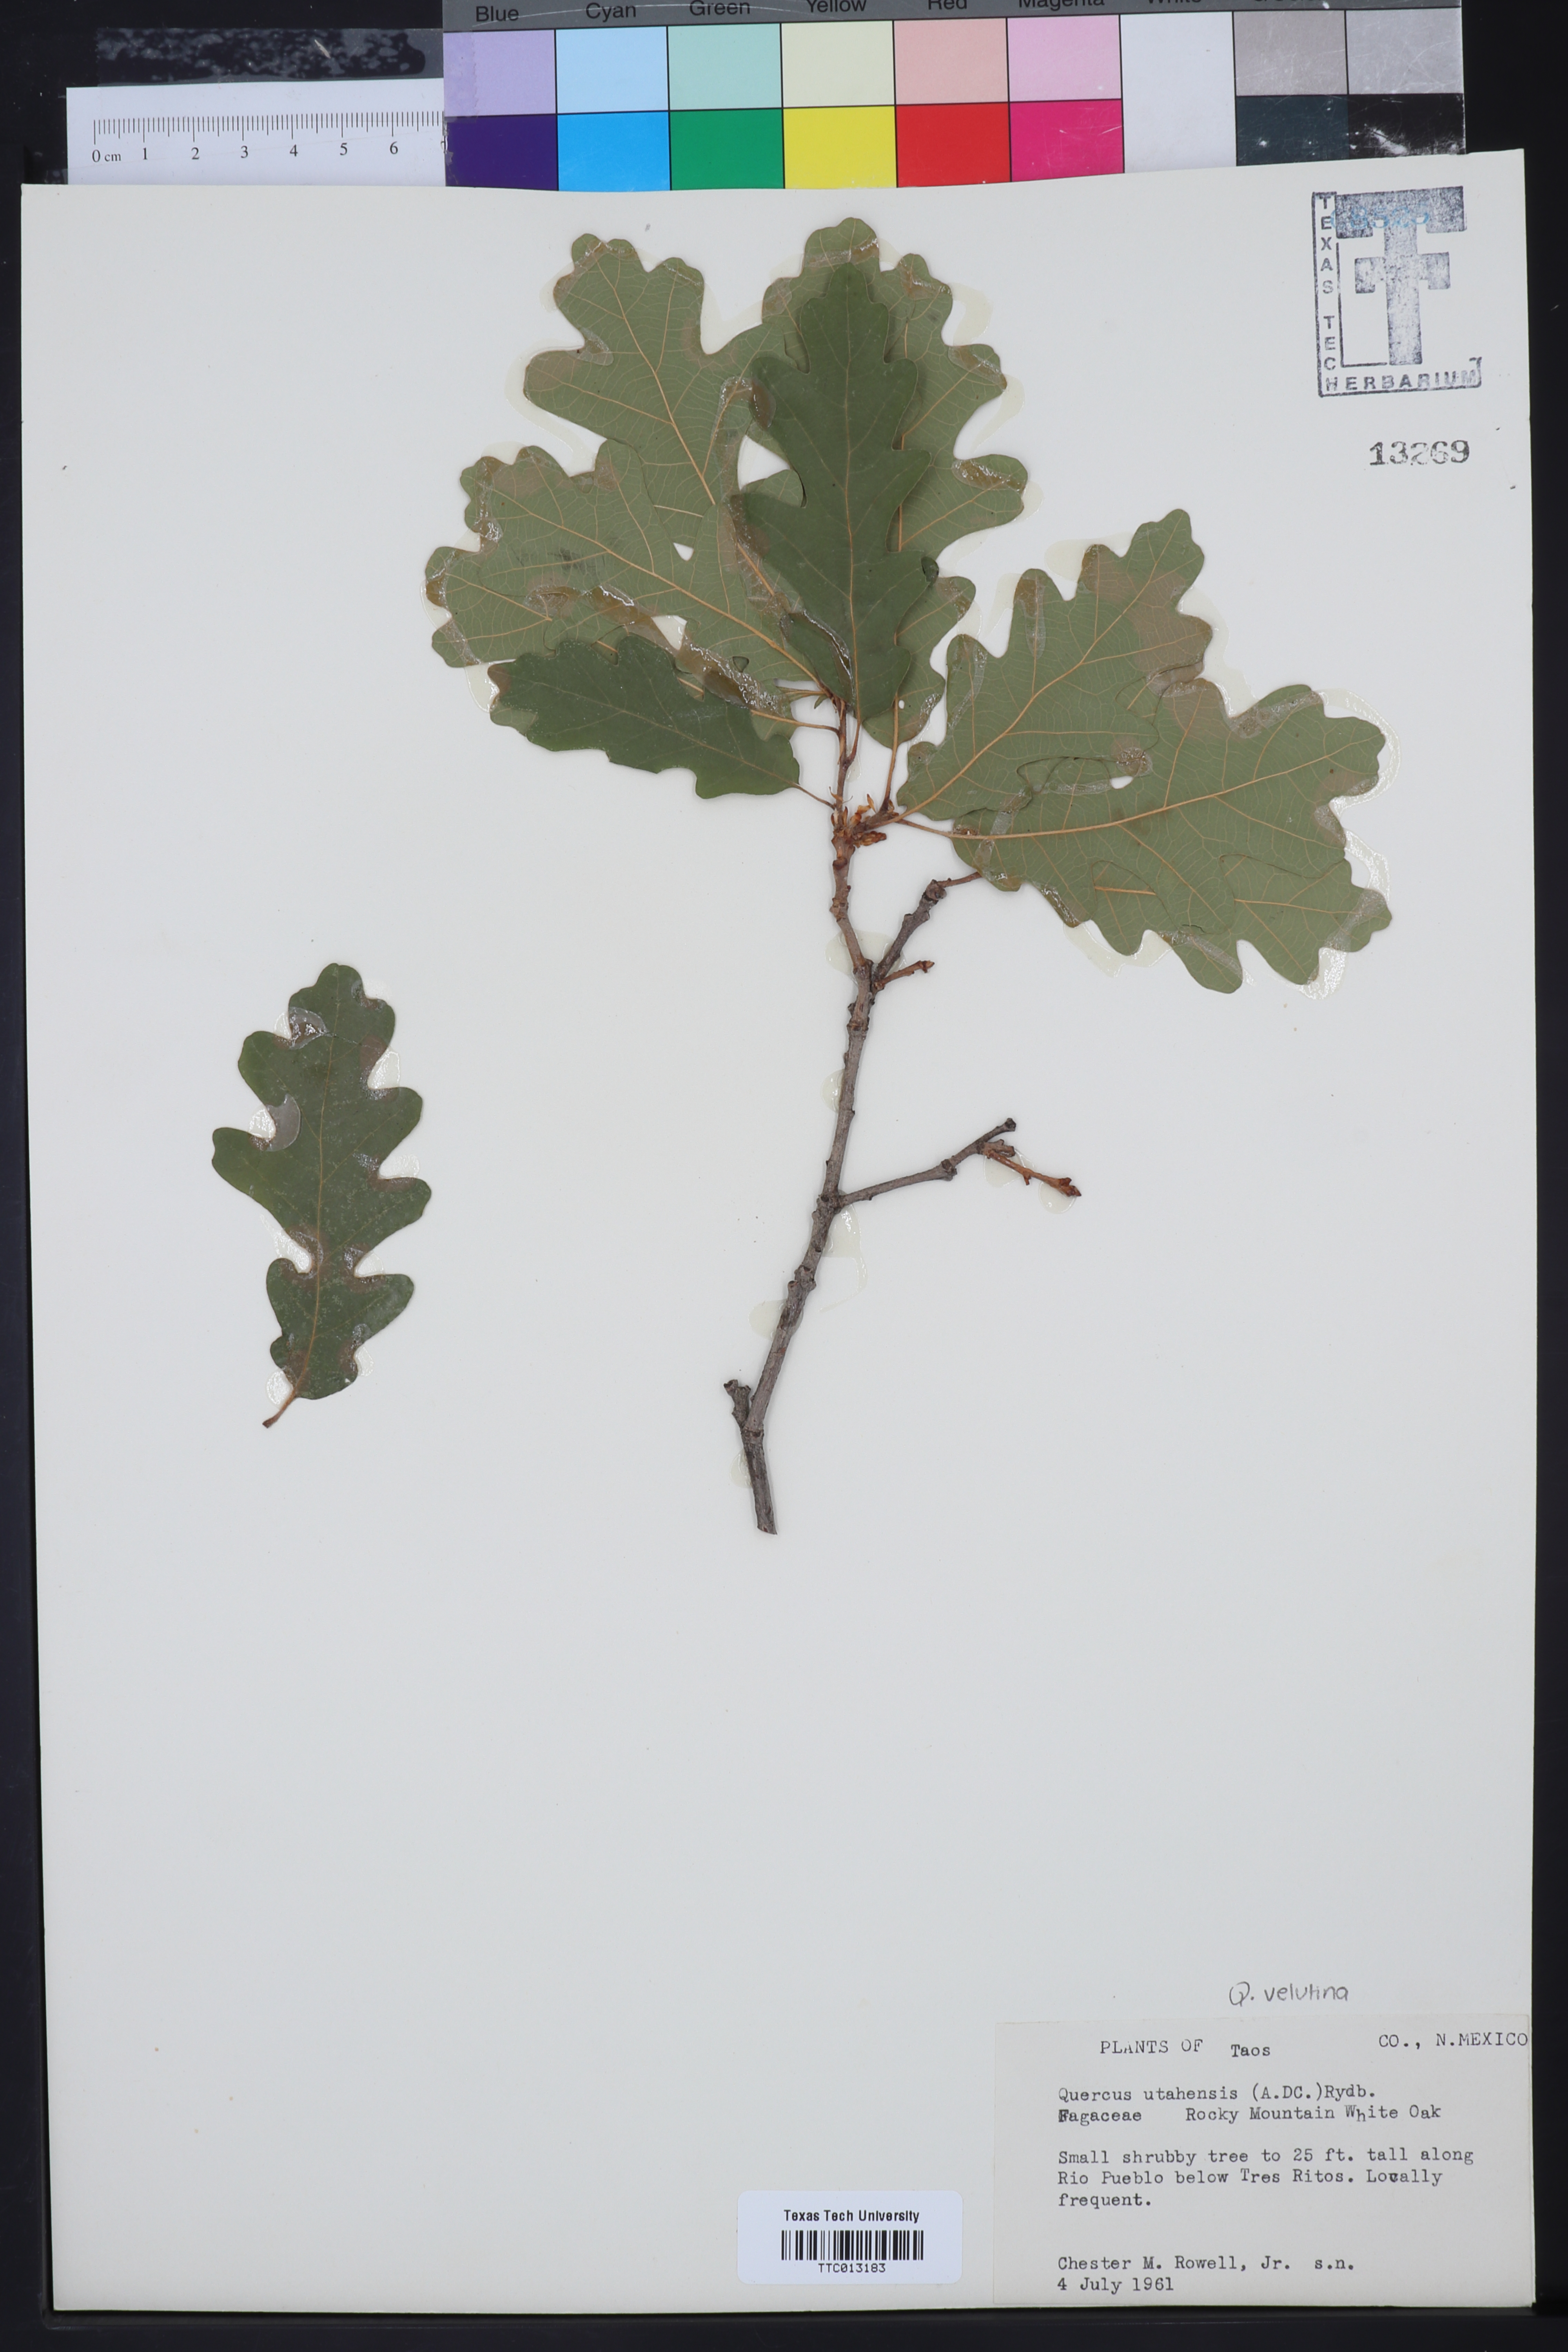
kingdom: Plantae
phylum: Tracheophyta
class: Magnoliopsida
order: Fagales
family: Fagaceae
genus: Quercus
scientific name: Quercus gambelii
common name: Gambel oak
